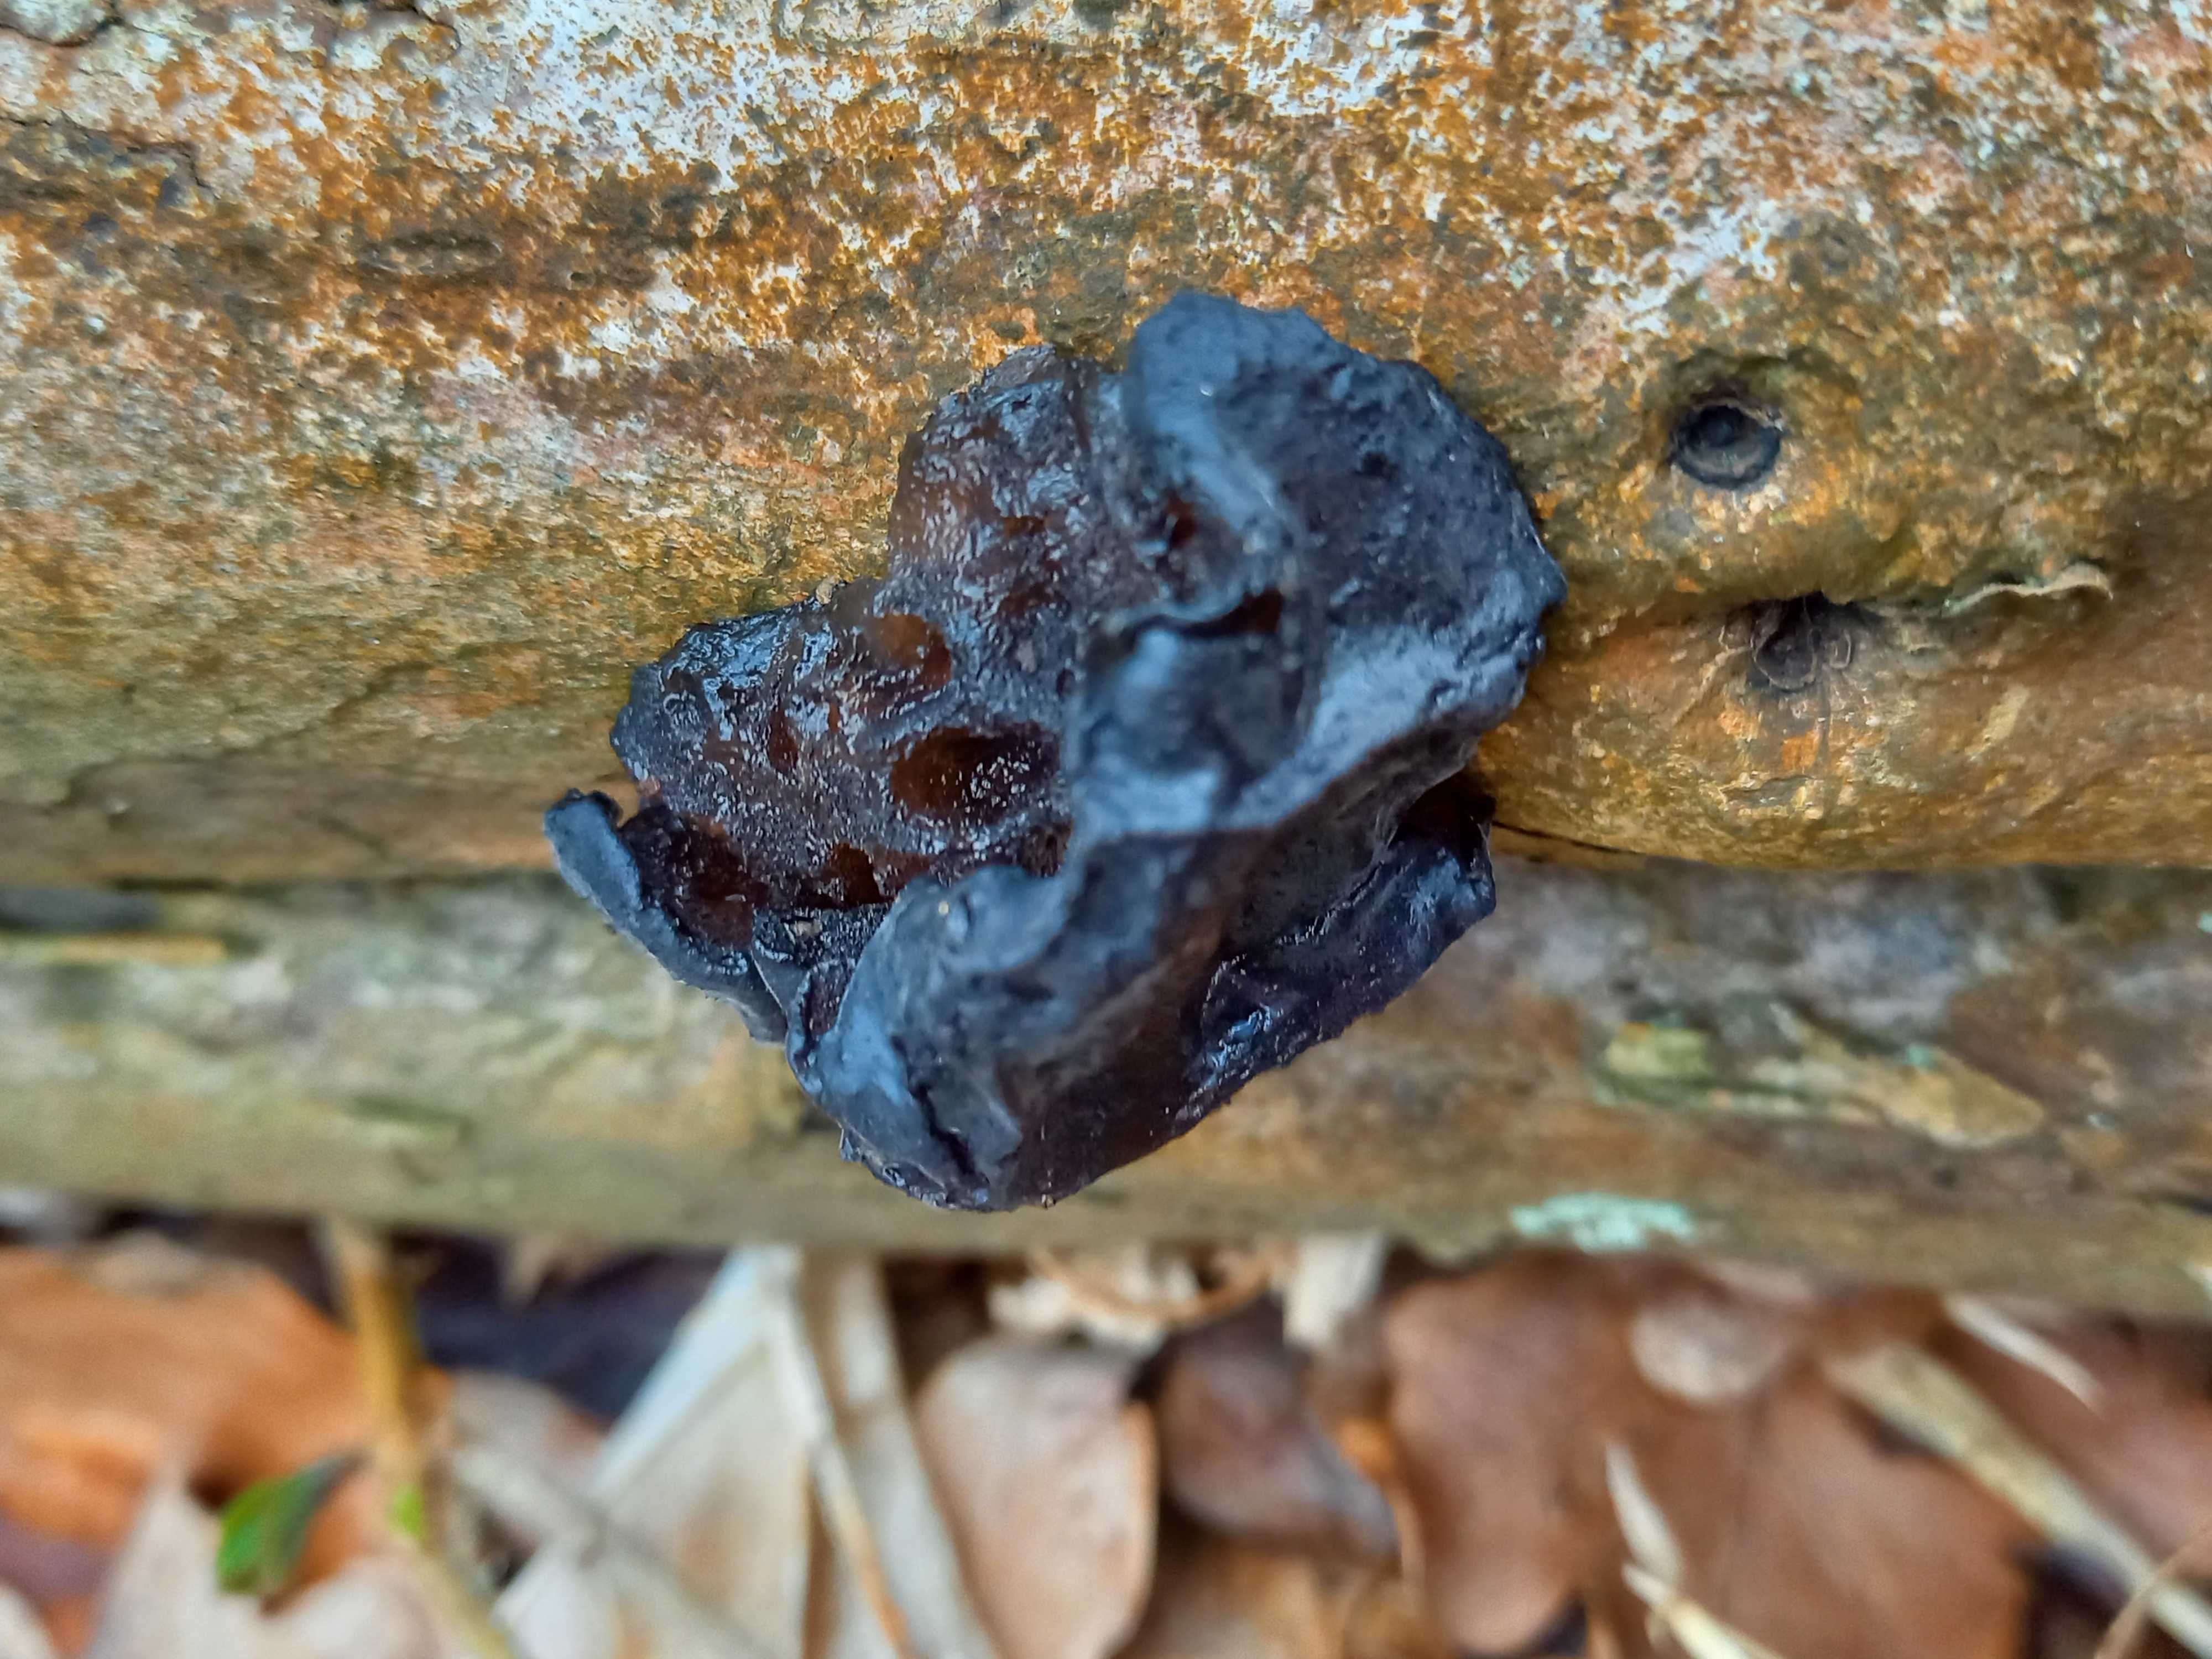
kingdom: Fungi
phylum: Basidiomycota
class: Agaricomycetes
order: Auriculariales
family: Auriculariaceae
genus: Exidia
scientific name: Exidia glandulosa
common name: ege-bævretop
